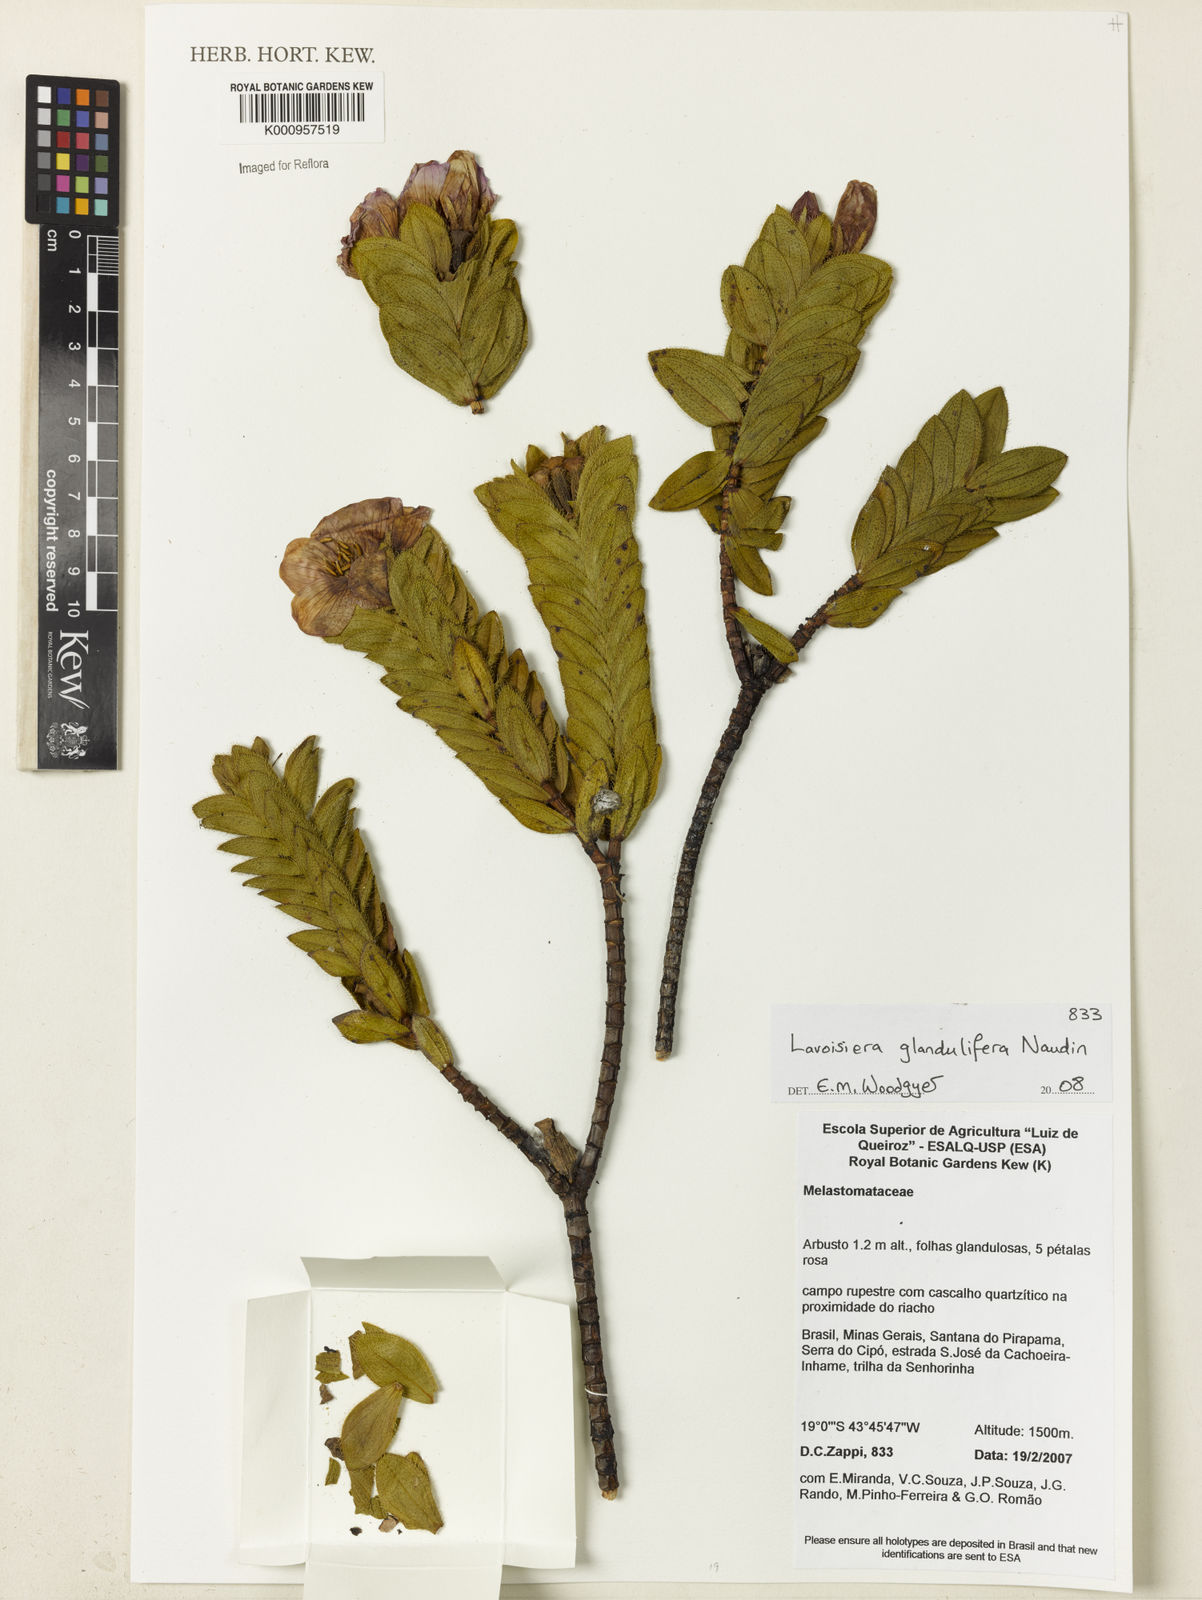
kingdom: Plantae
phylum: Tracheophyta
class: Magnoliopsida
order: Myrtales
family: Melastomataceae
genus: Microlicia
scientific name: Microlicia glandulifolia
